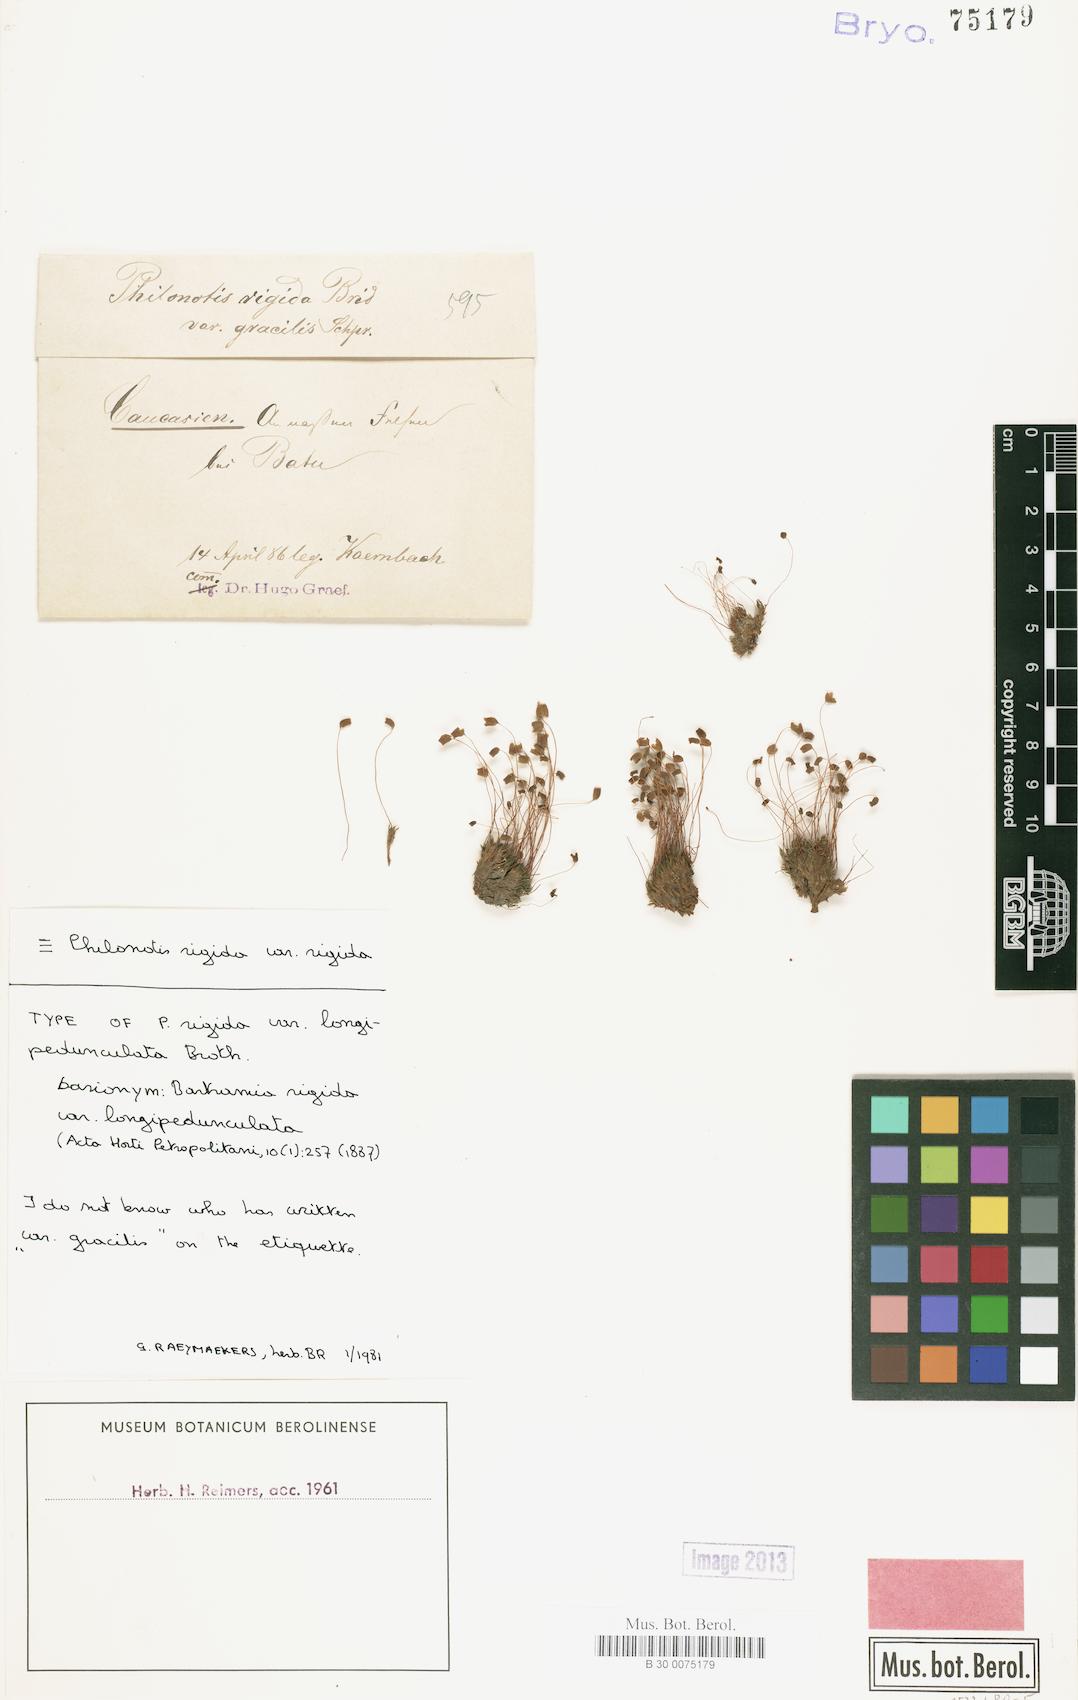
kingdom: Plantae
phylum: Bryophyta
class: Bryopsida
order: Bartramiales
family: Bartramiaceae
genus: Philonotis
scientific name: Philonotis rigida
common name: Rigid apple-moss
